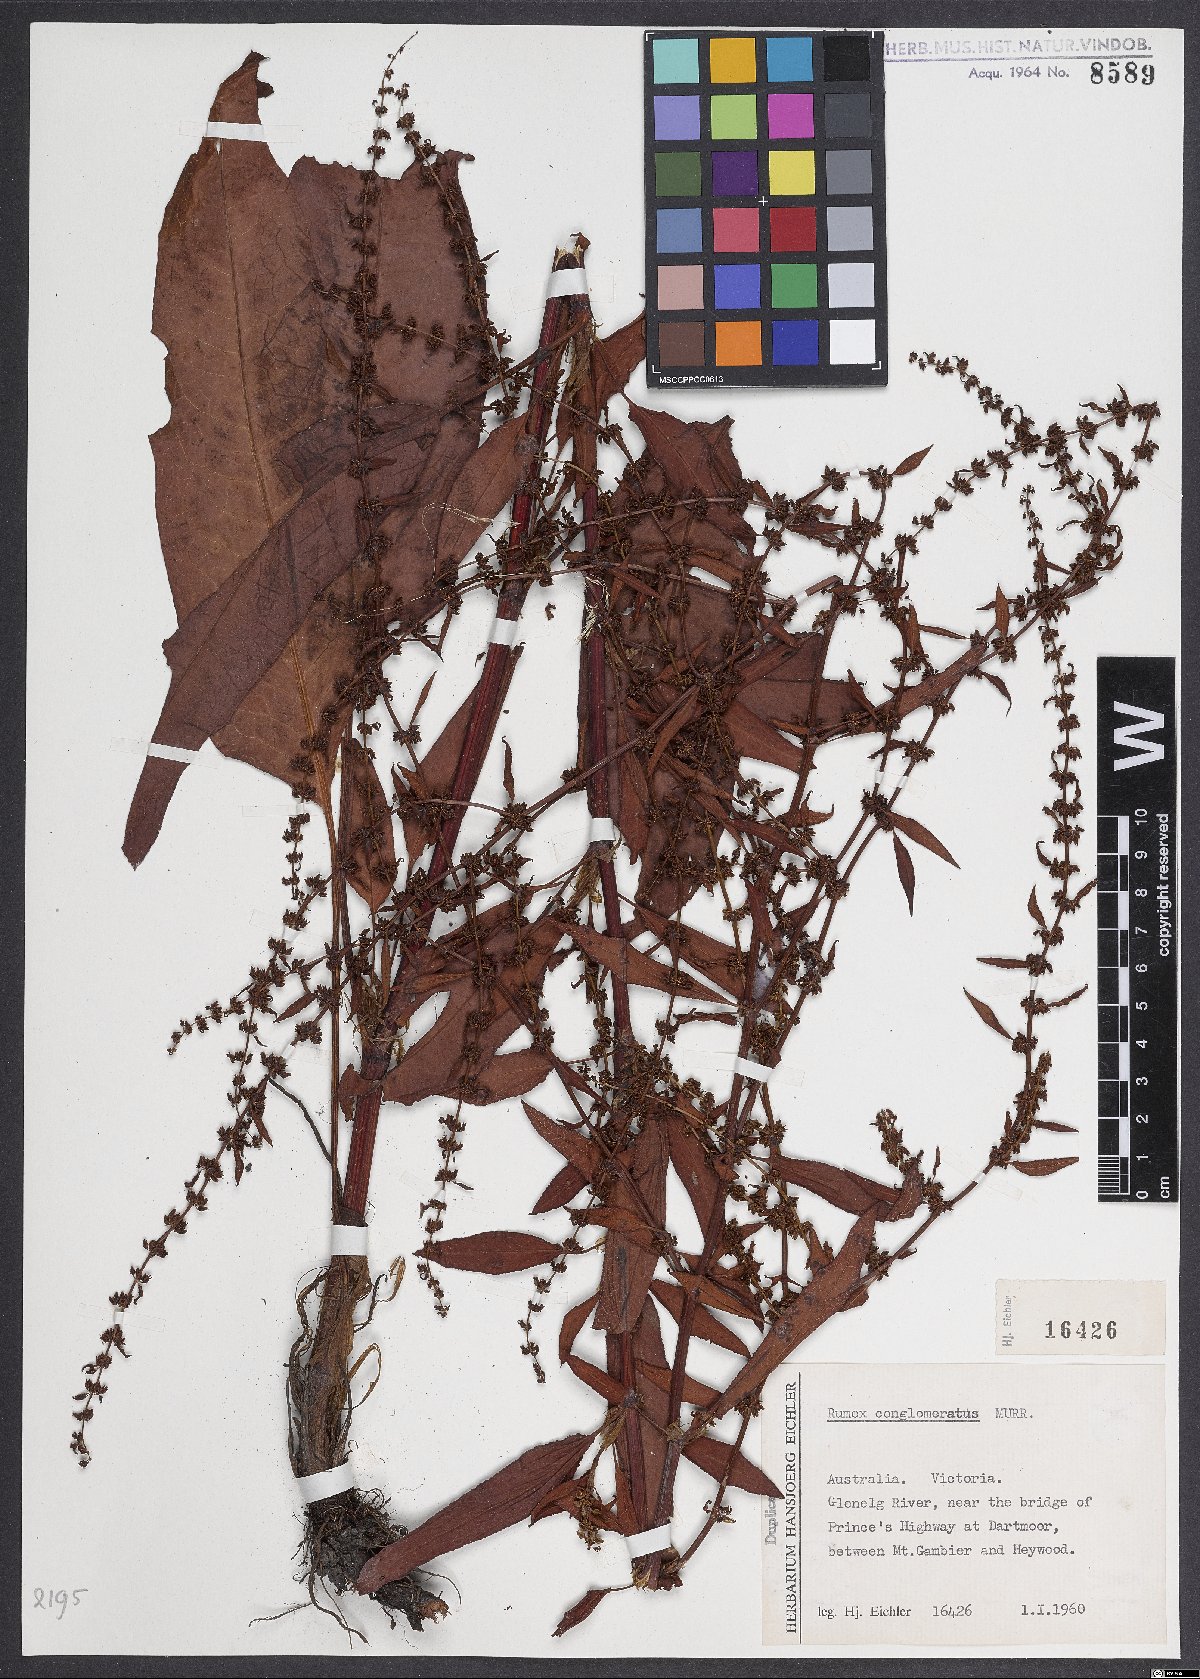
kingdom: Plantae
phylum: Tracheophyta
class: Magnoliopsida
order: Caryophyllales
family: Polygonaceae
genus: Rumex
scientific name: Rumex conglomeratus
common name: Clustered dock
